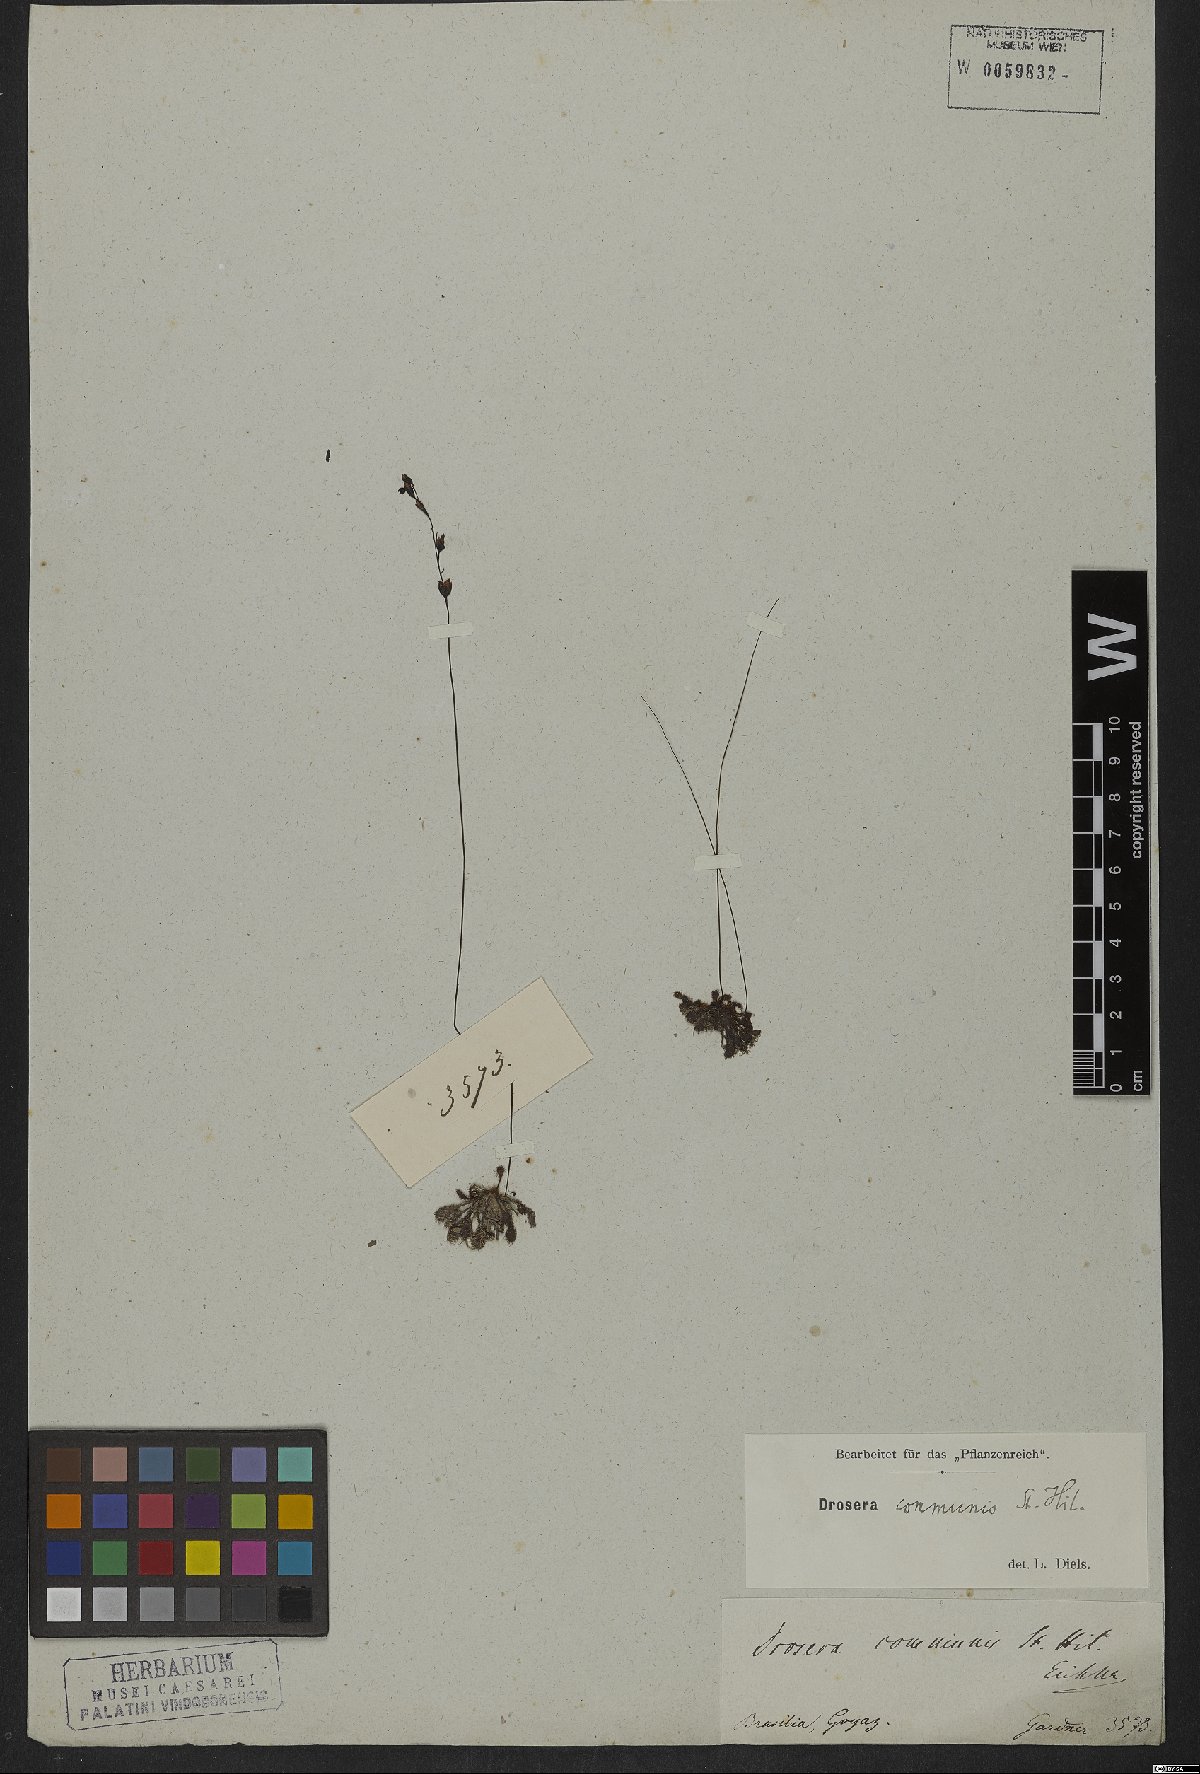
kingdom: Plantae
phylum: Tracheophyta
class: Magnoliopsida
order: Caryophyllales
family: Droseraceae
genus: Drosera
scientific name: Drosera communis
